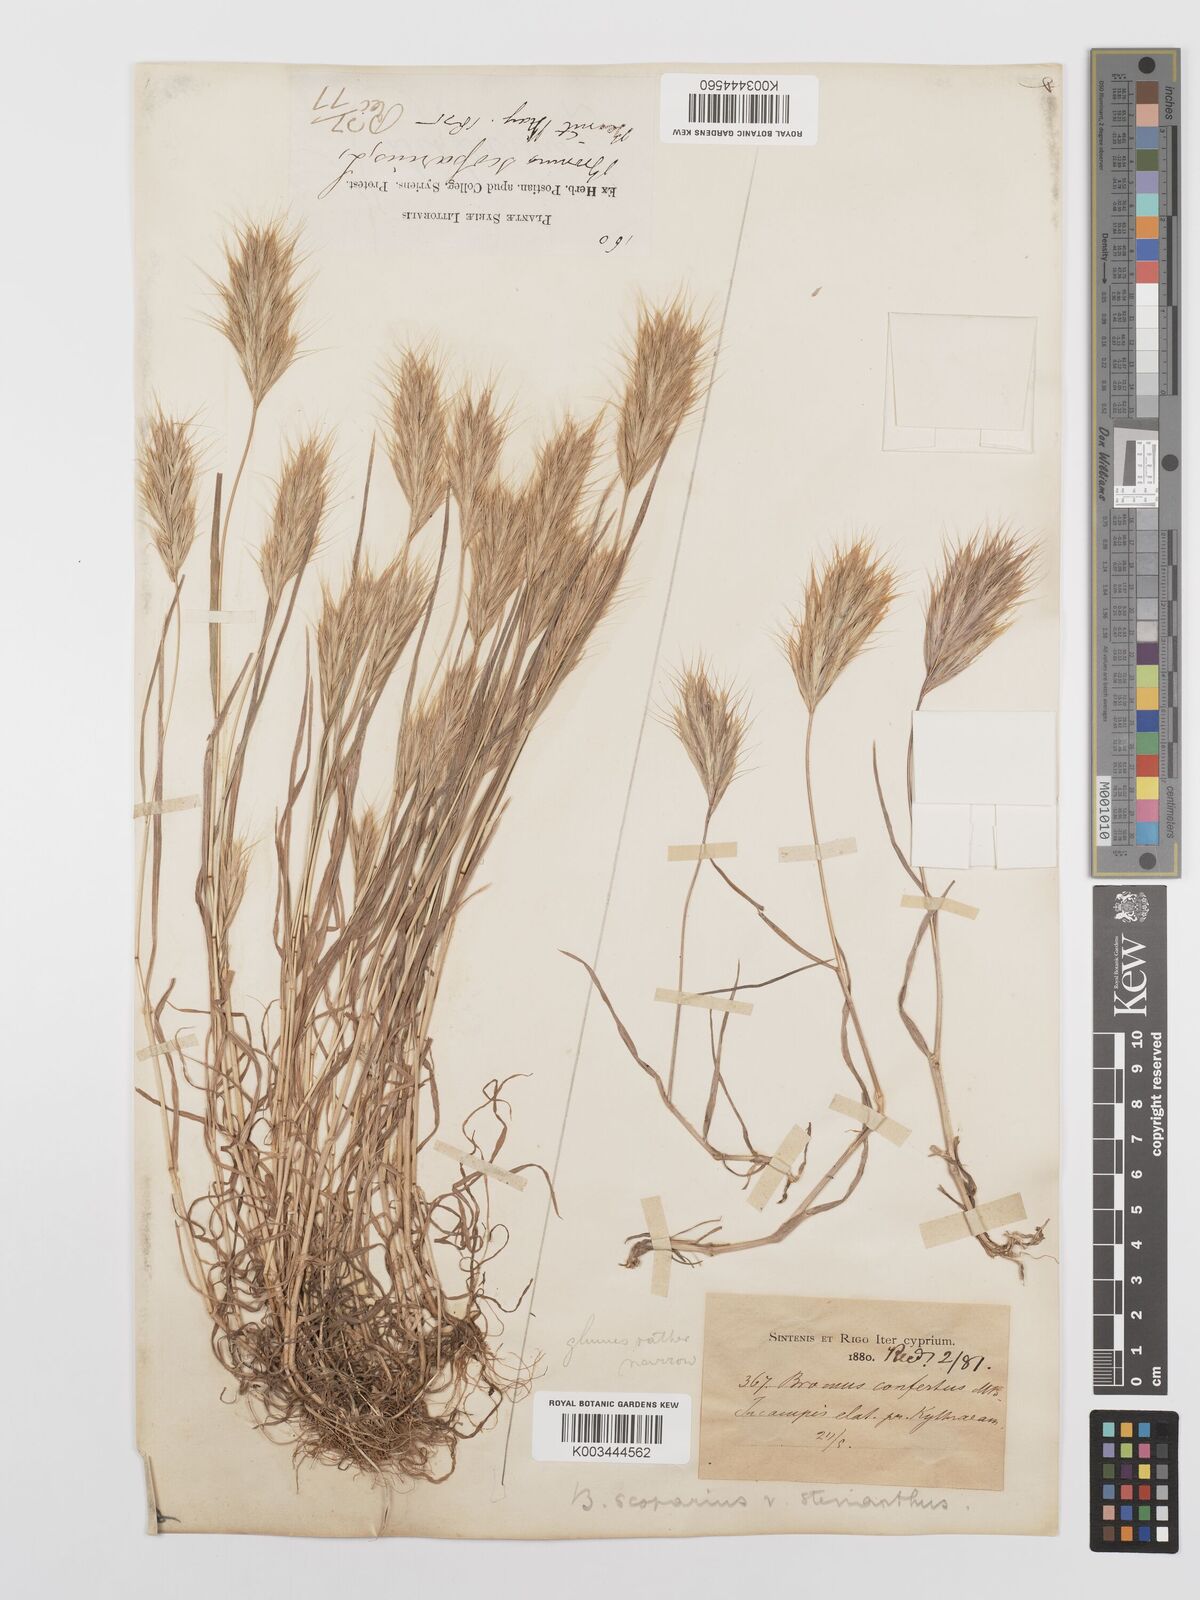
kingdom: Plantae
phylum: Tracheophyta
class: Liliopsida
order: Poales
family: Poaceae
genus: Bromus
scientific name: Bromus scoparius
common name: Broom brome
